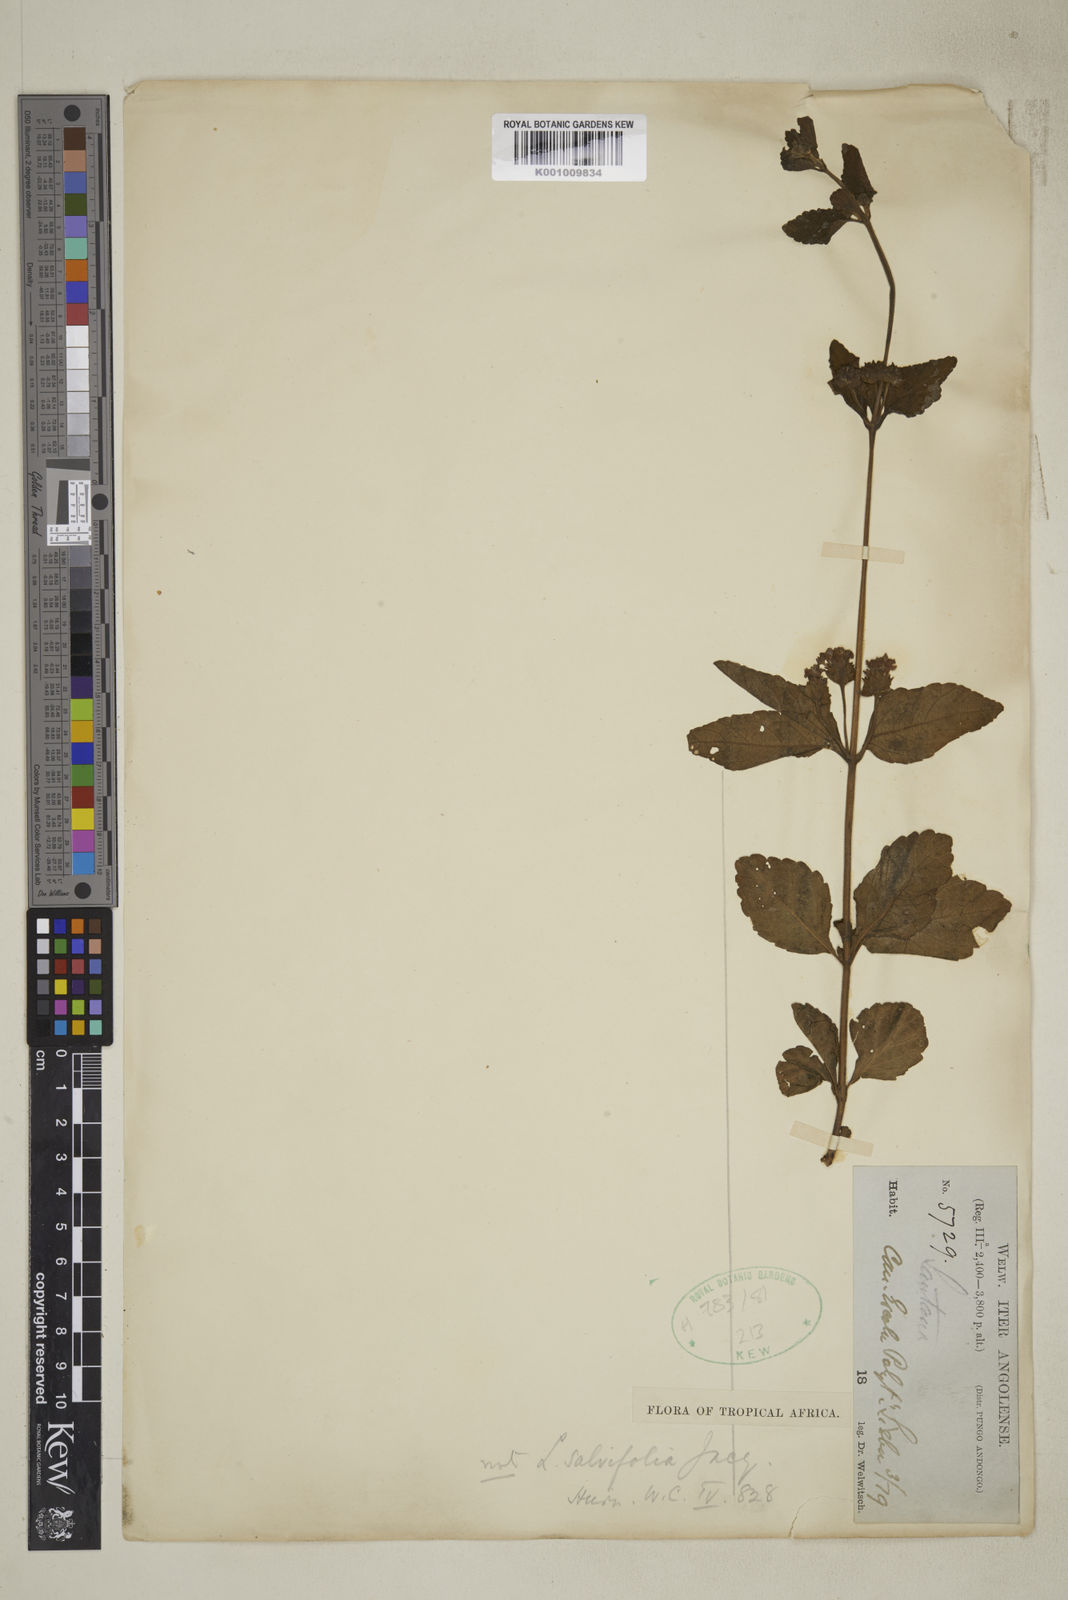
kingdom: Plantae
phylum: Tracheophyta
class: Magnoliopsida
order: Lamiales
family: Verbenaceae
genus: Lantana
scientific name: Lantana
